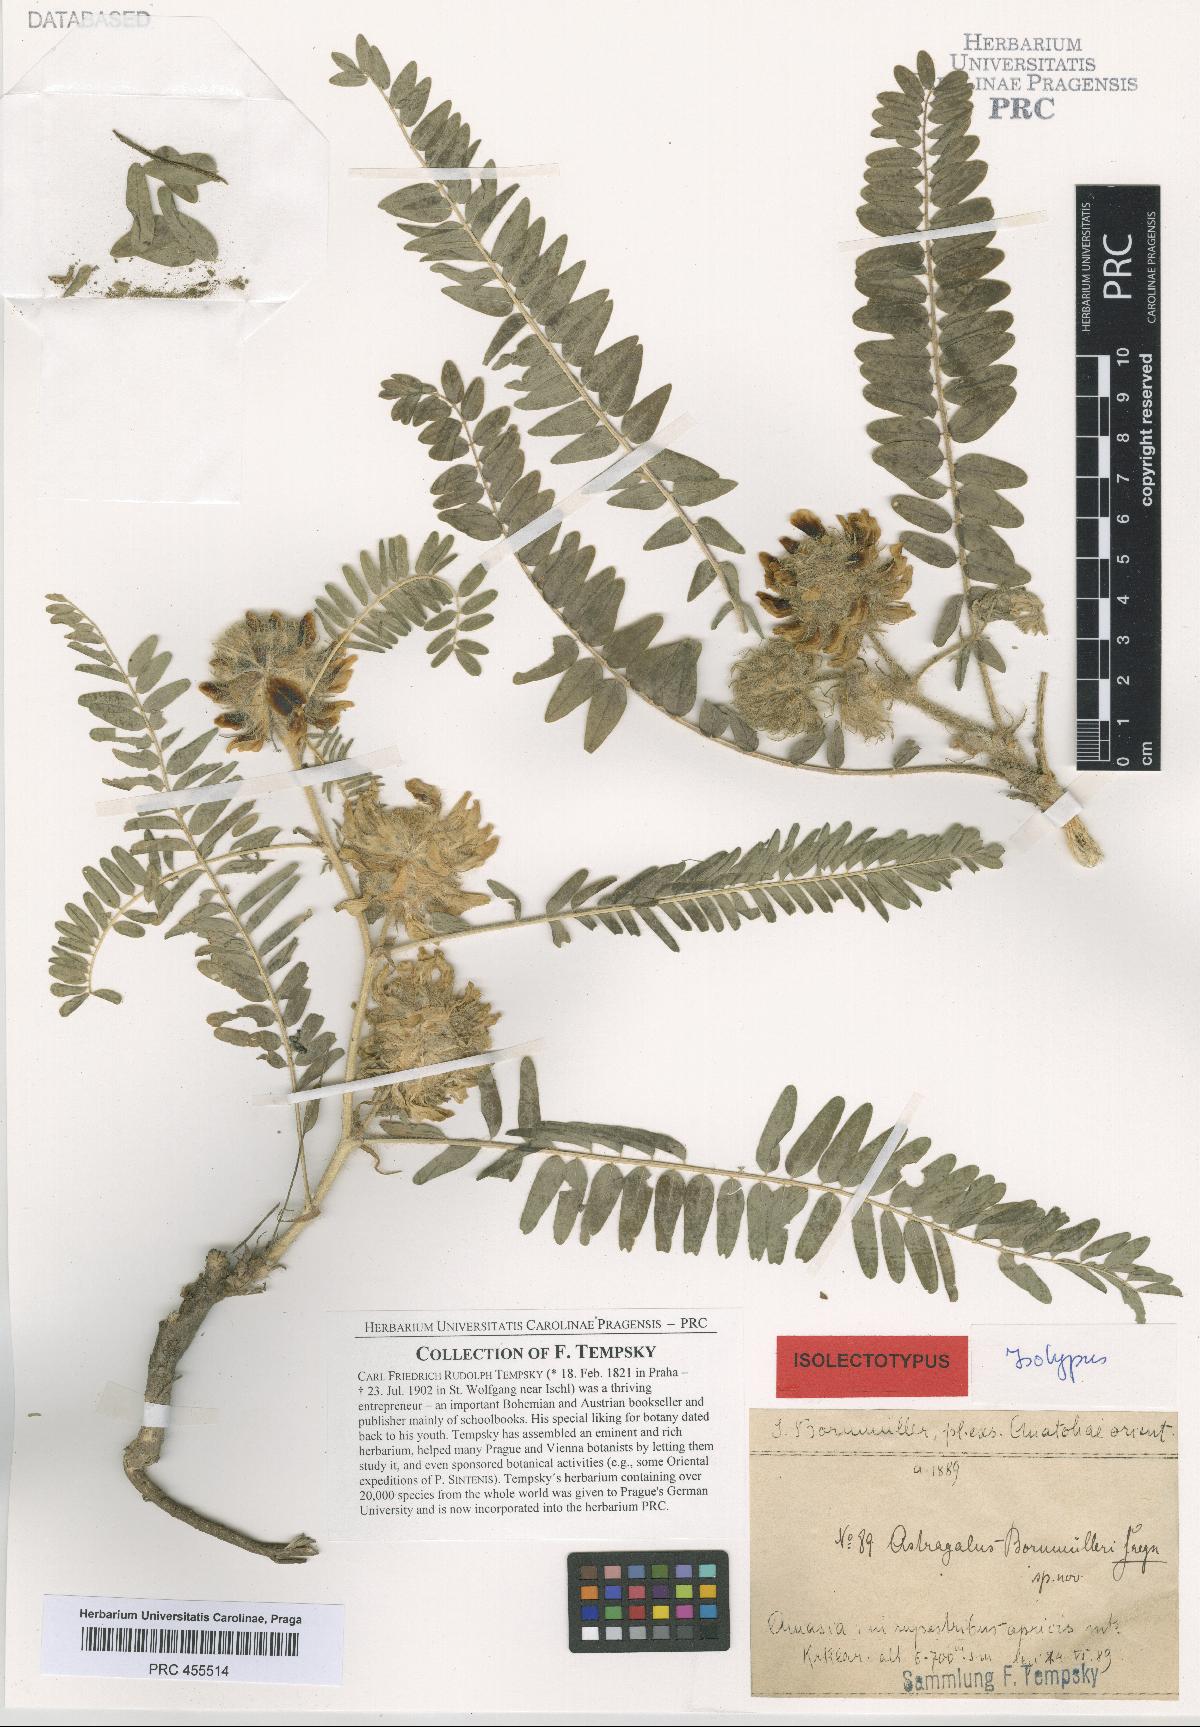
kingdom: Plantae
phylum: Tracheophyta
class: Magnoliopsida
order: Fabales
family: Fabaceae
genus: Astragalus
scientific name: Astragalus dipsaceus
